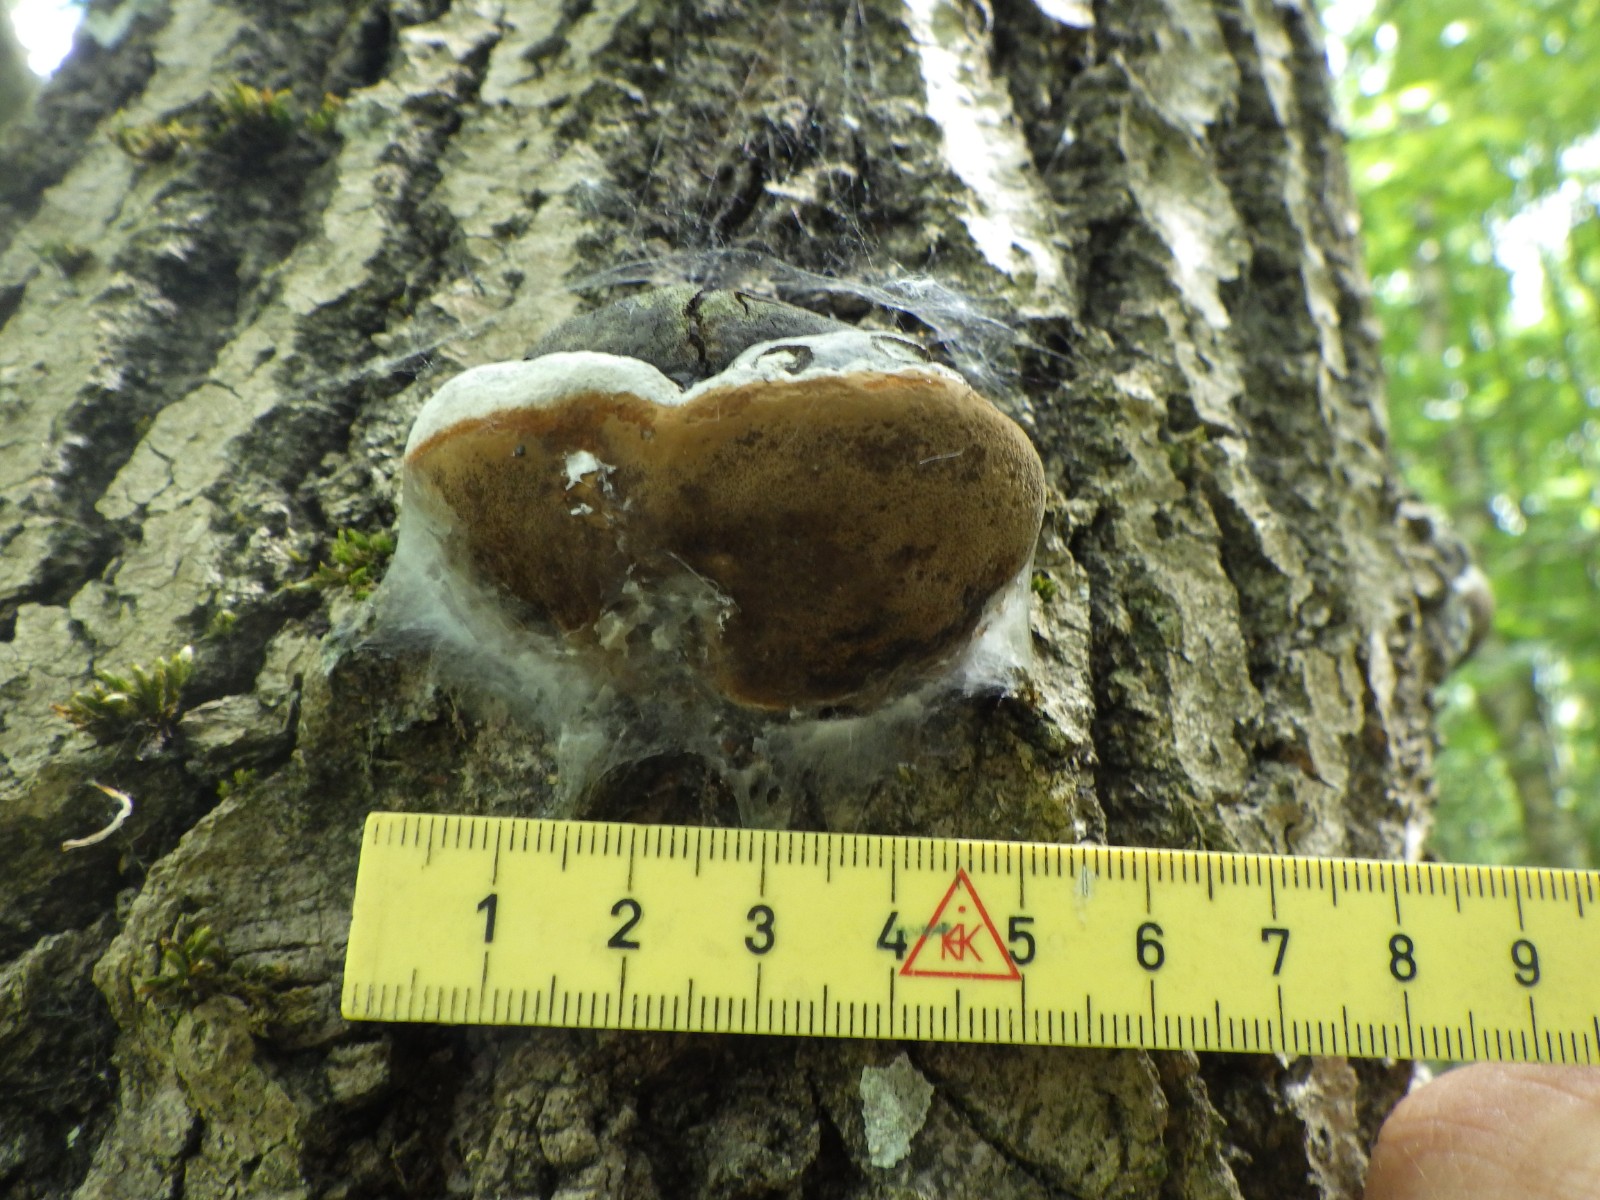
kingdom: Fungi
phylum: Basidiomycota
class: Agaricomycetes
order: Hymenochaetales
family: Hymenochaetaceae
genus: Phellinus
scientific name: Phellinus populicola
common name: poppel-ildporesvamp
